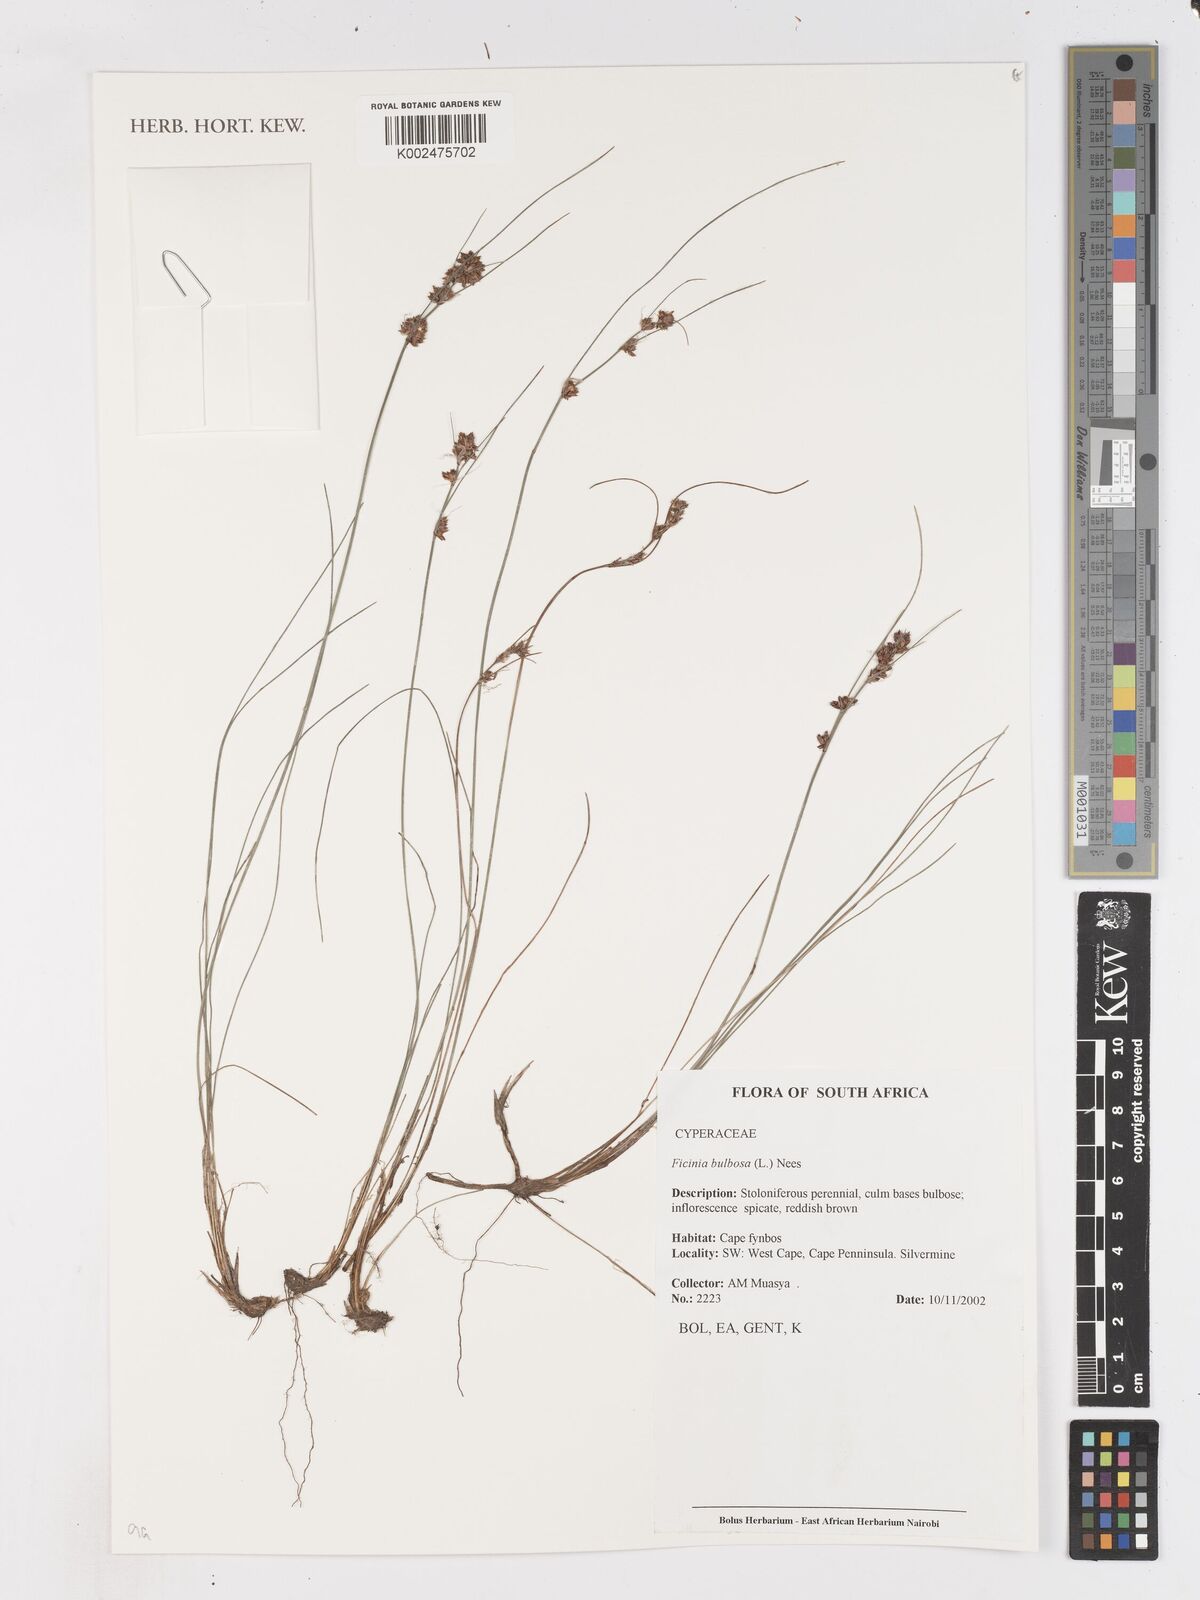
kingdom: Plantae
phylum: Tracheophyta
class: Liliopsida
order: Poales
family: Cyperaceae
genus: Ficinia
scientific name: Ficinia bulbosa
